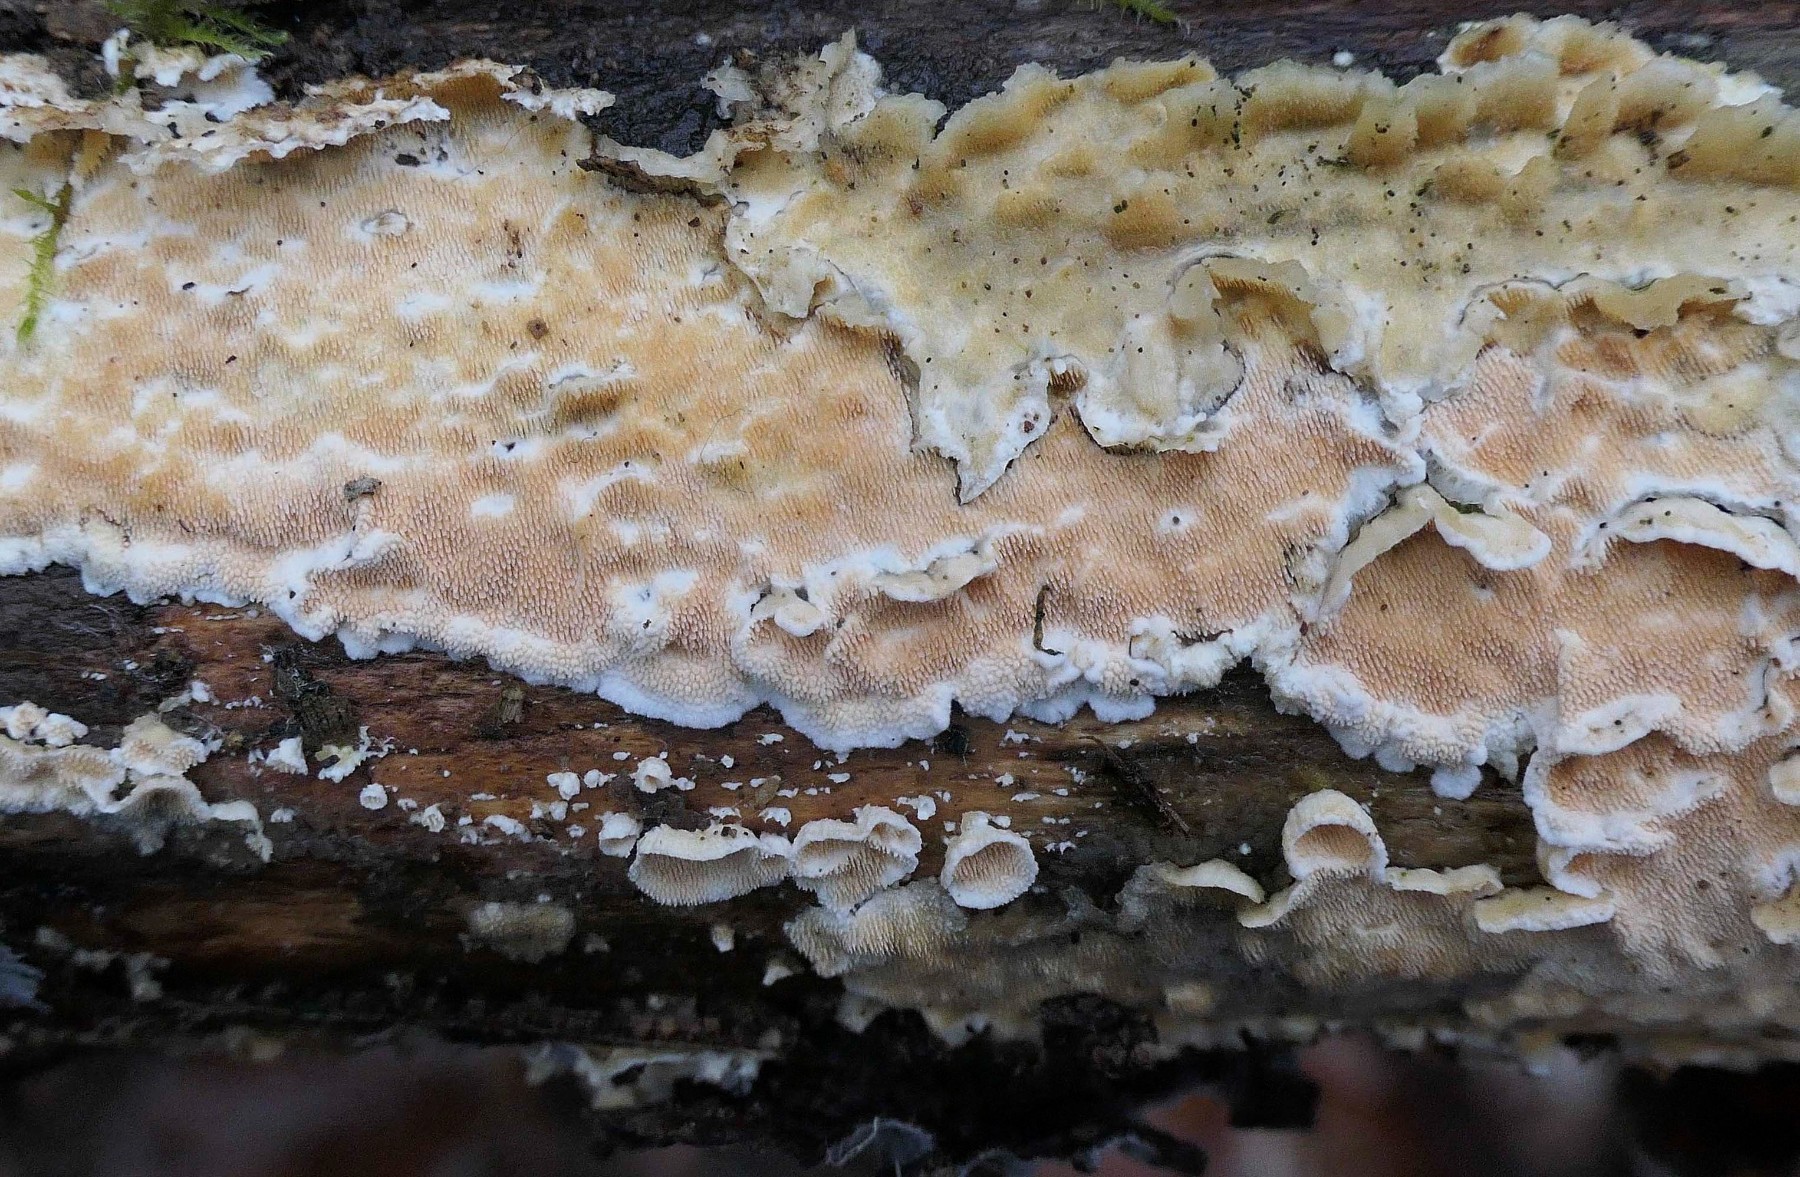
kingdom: Fungi
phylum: Basidiomycota
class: Agaricomycetes
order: Polyporales
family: Steccherinaceae
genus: Steccherinum
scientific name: Steccherinum ochraceum
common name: almindelig skønpig
